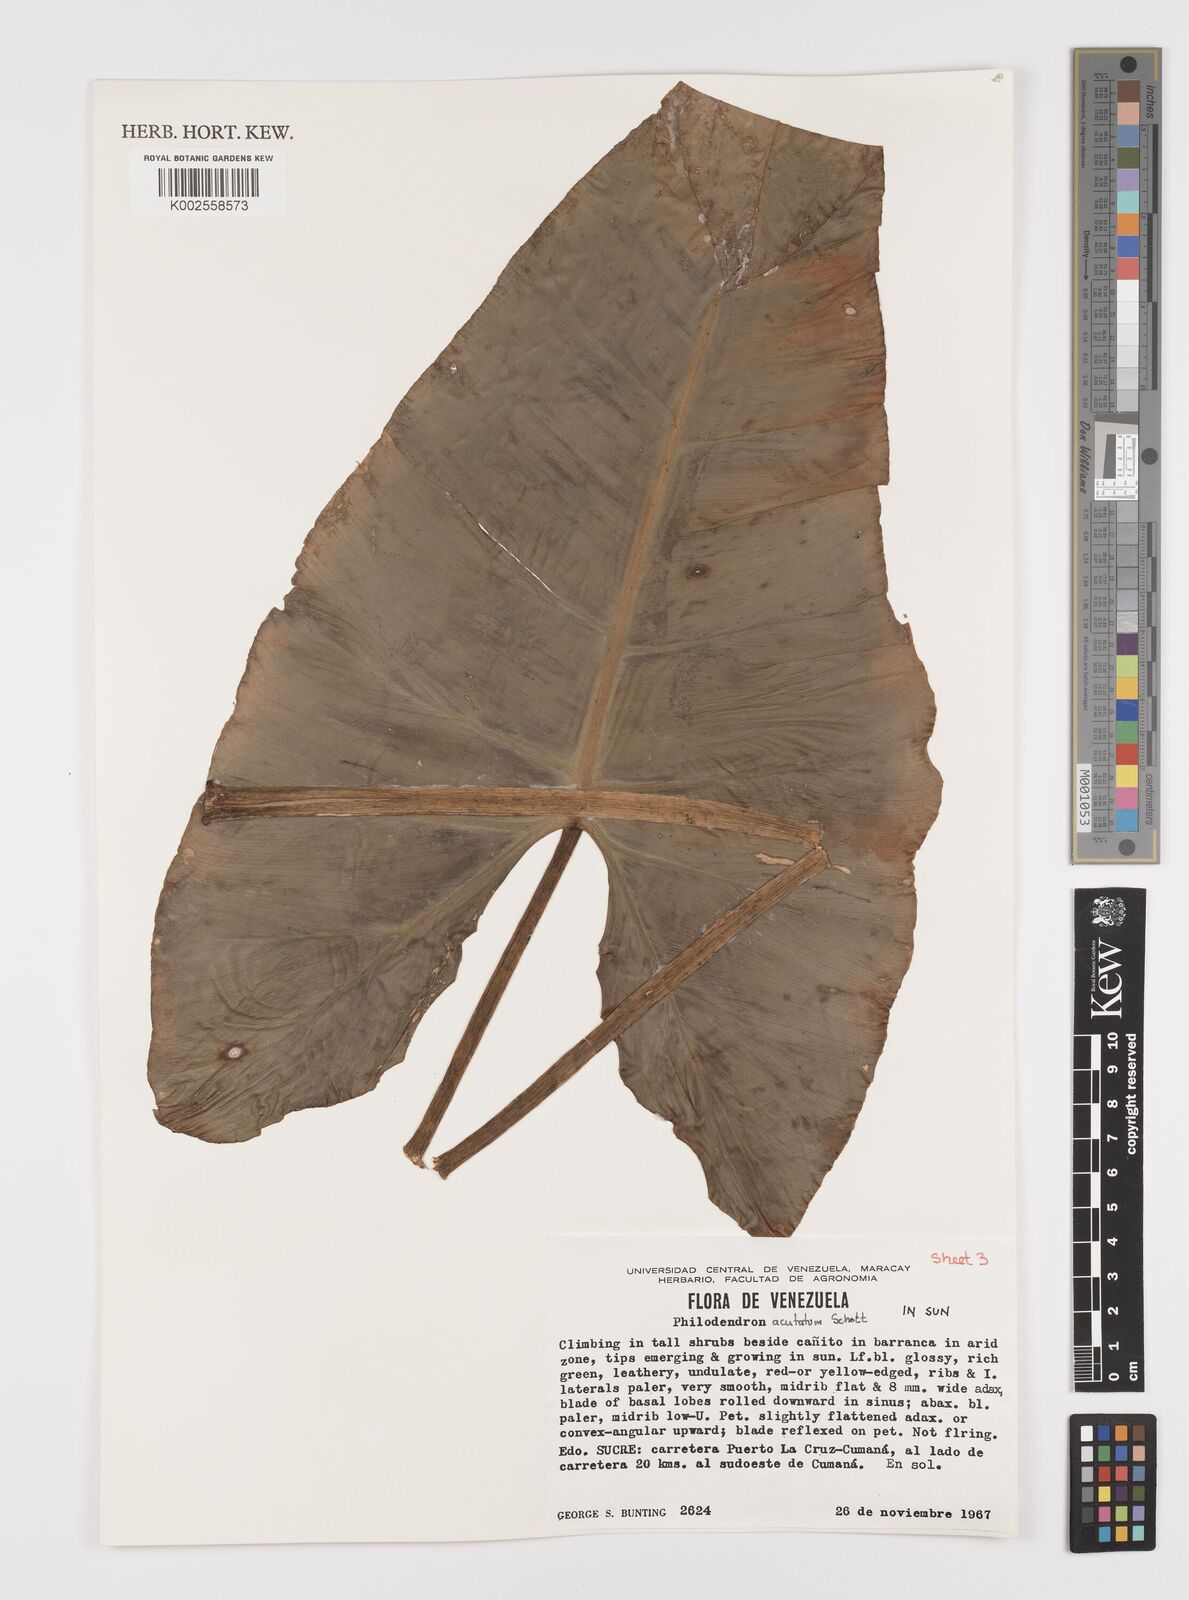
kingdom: Plantae
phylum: Tracheophyta
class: Liliopsida
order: Alismatales
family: Araceae
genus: Philodendron
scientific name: Philodendron quinquenervium
